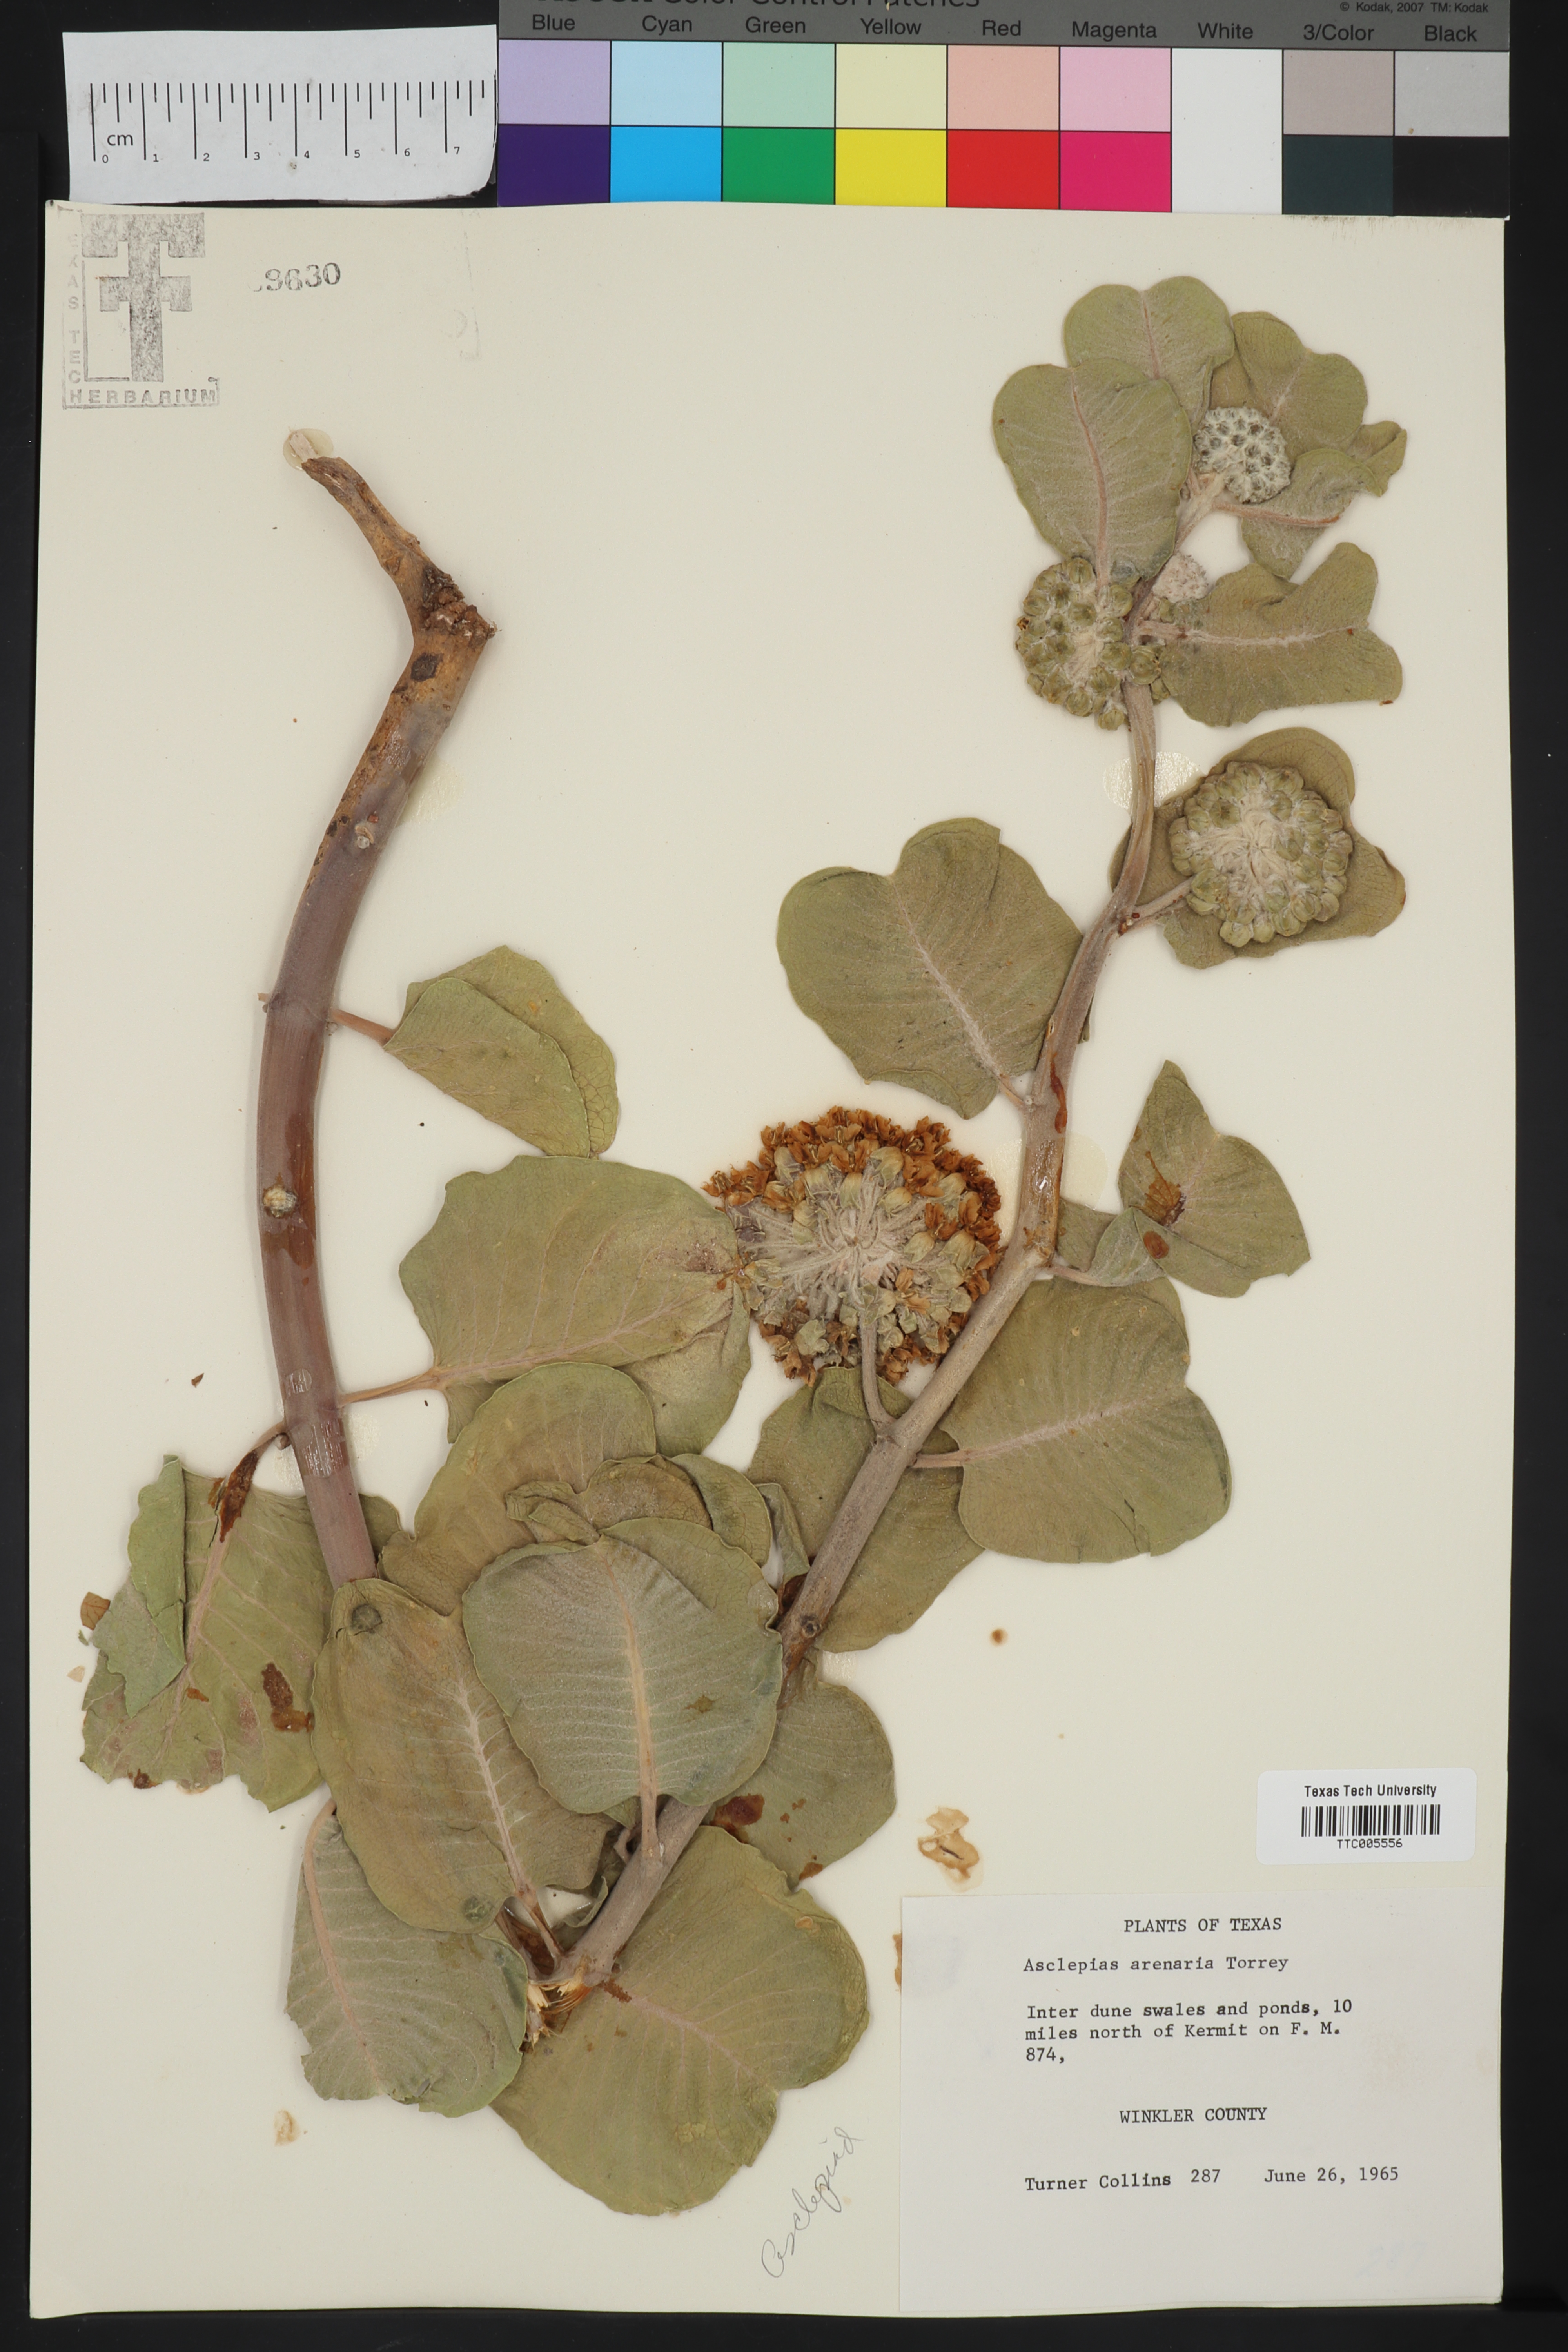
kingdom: Plantae
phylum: Tracheophyta
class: Magnoliopsida
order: Gentianales
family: Apocynaceae
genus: Asclepias
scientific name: Asclepias arenaria
